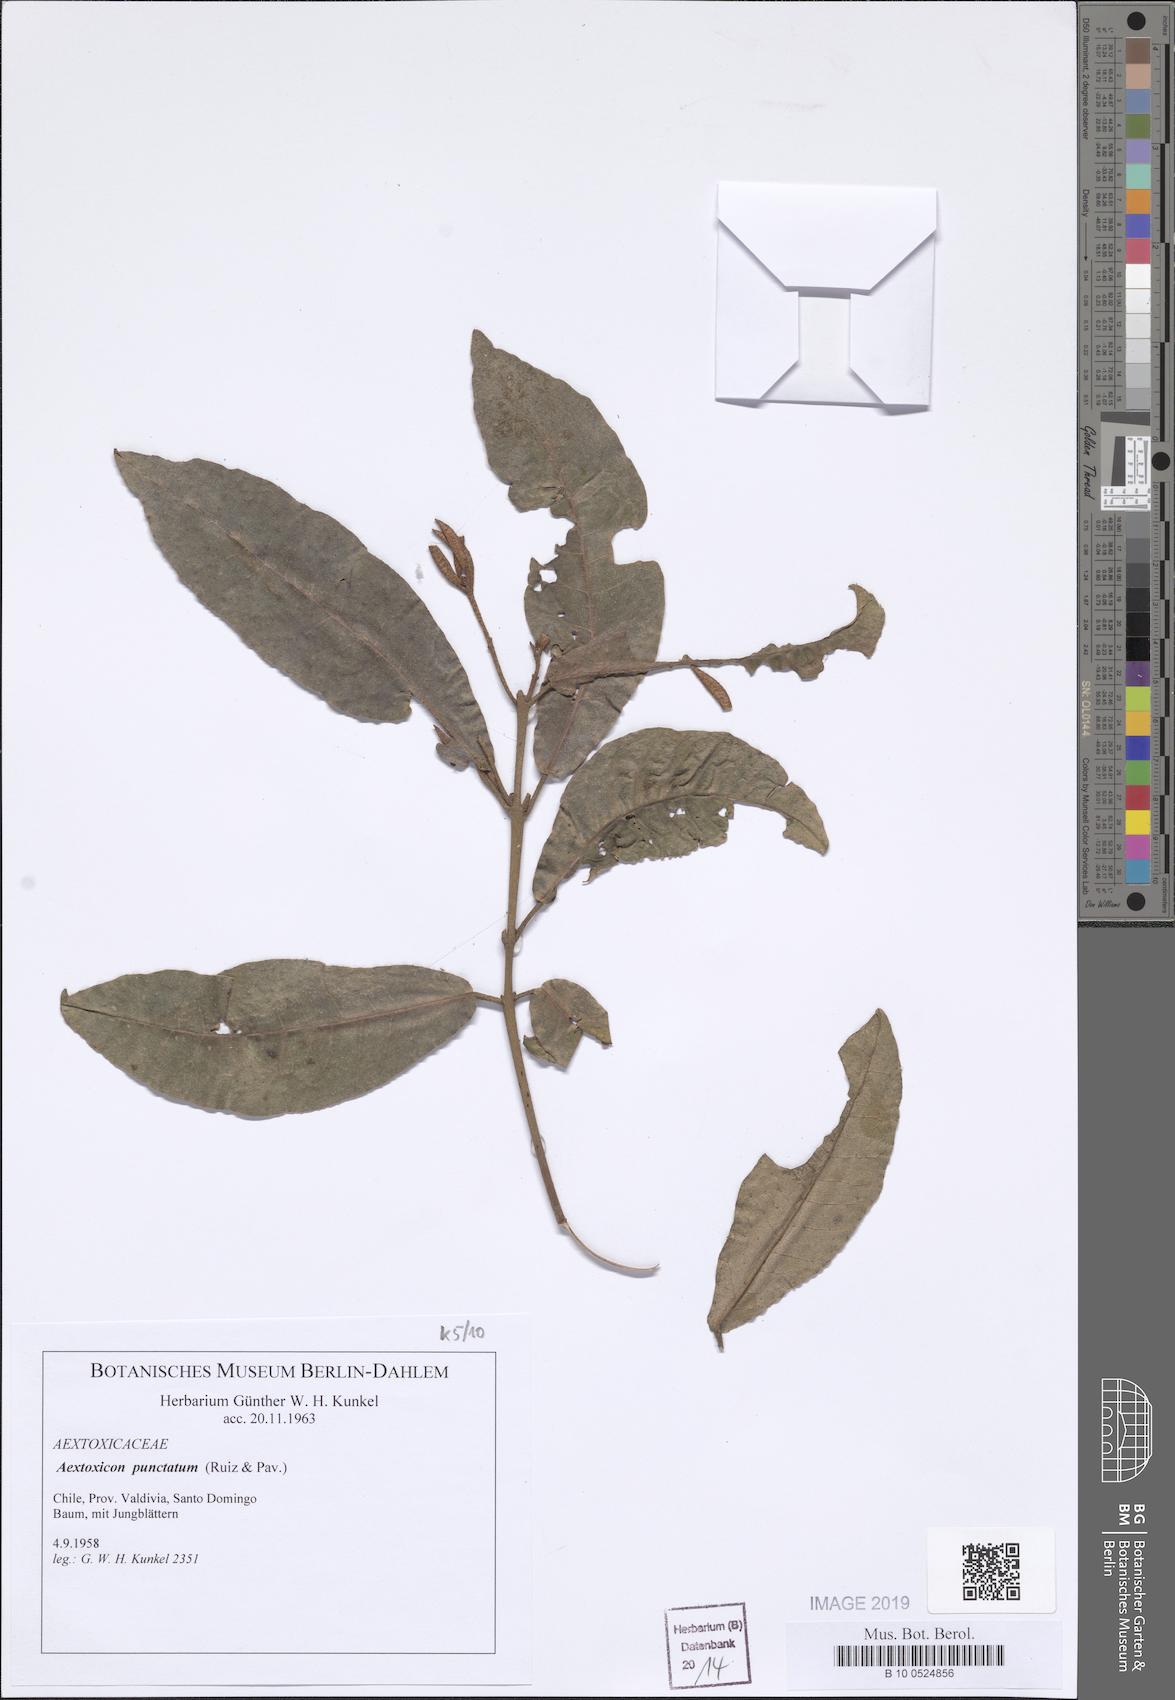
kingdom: Plantae
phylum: Tracheophyta
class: Magnoliopsida
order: Berberidopsidales
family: Aextoxicaceae
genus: Aextoxicon
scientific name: Aextoxicon punctatum
